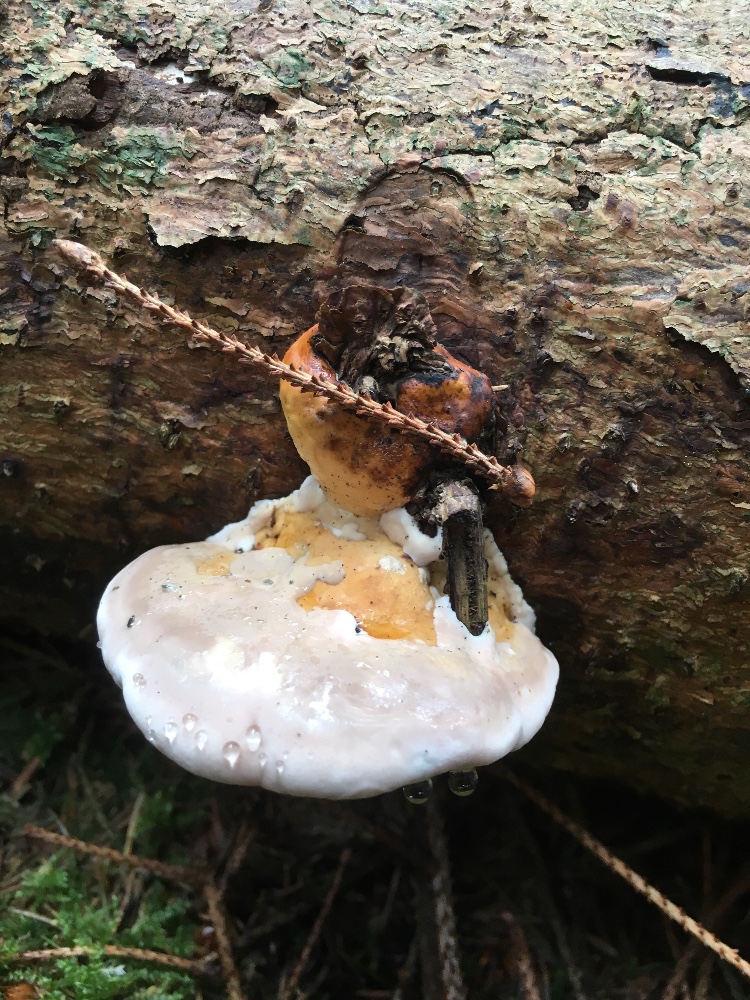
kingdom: Fungi
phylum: Basidiomycota
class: Agaricomycetes
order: Polyporales
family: Fomitopsidaceae
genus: Fomitopsis
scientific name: Fomitopsis pinicola
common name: randbæltet hovporesvamp
